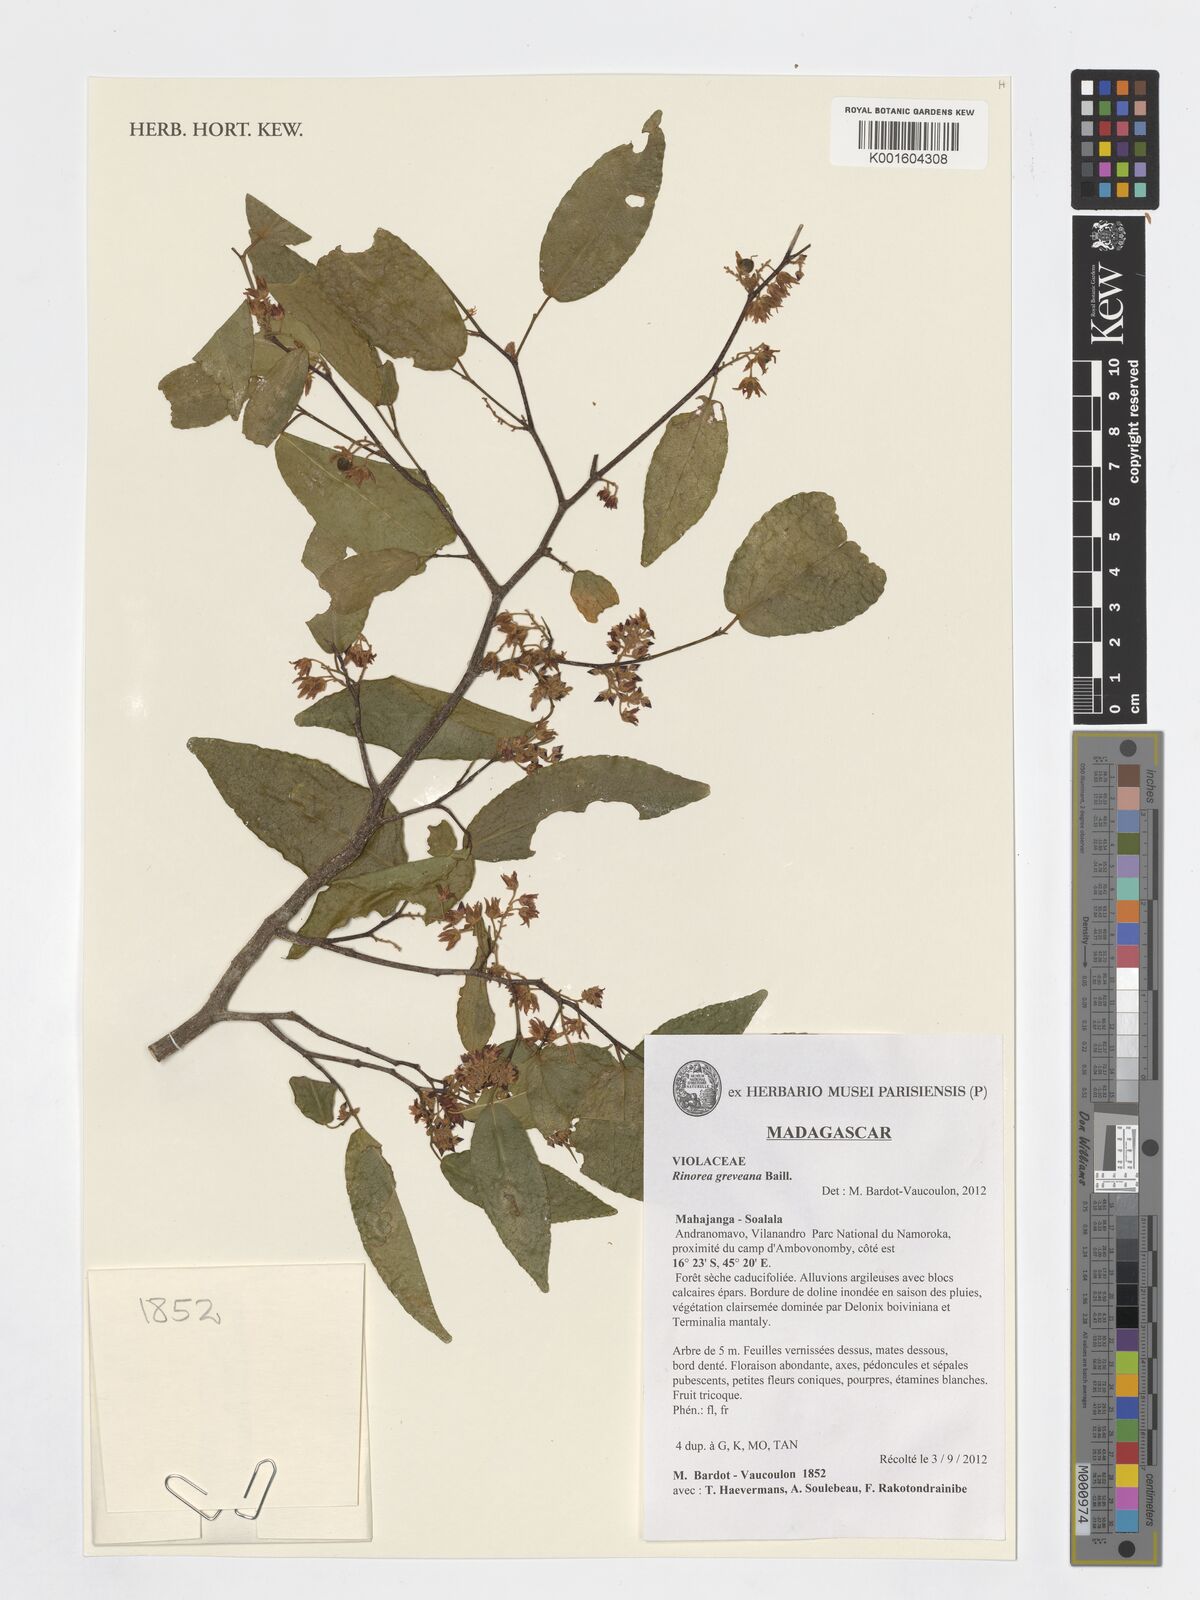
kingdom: Plantae
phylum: Tracheophyta
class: Magnoliopsida
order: Malpighiales
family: Violaceae
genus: Rinorea
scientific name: Rinorea greveana
